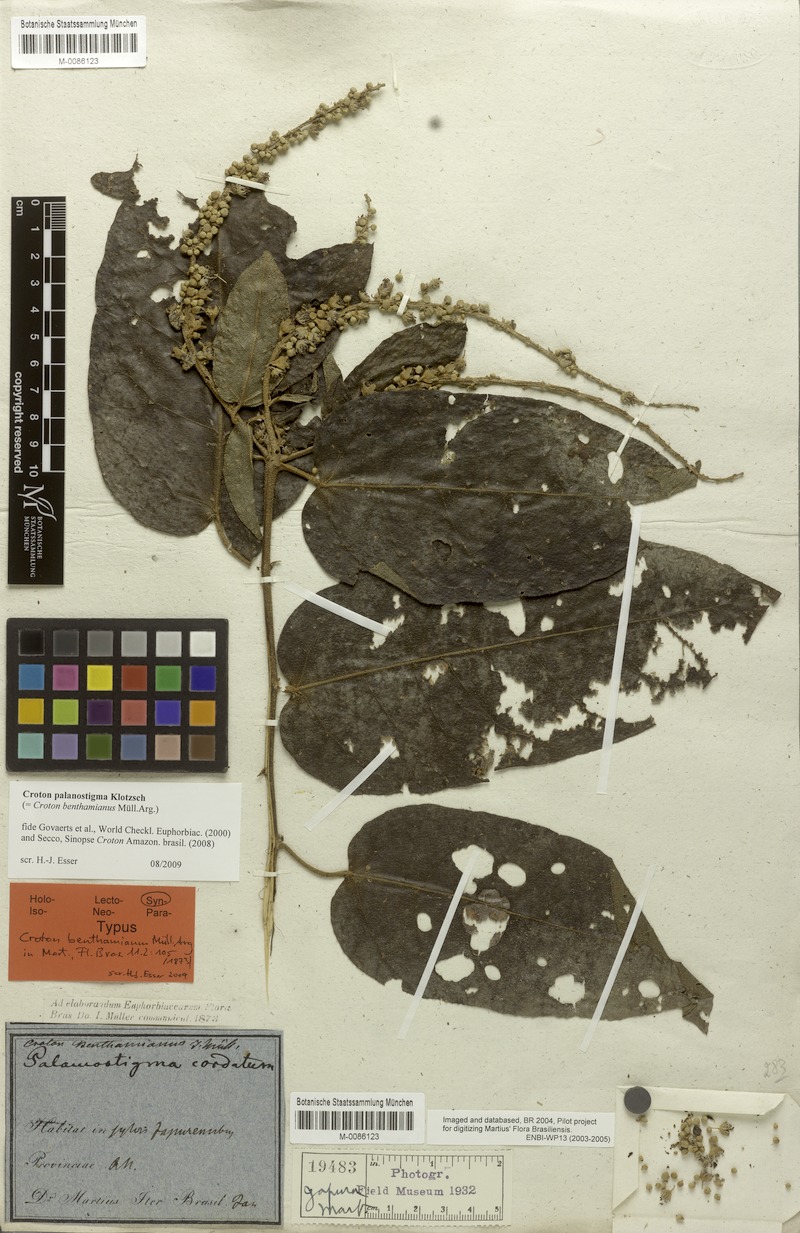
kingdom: Plantae
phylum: Tracheophyta
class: Magnoliopsida
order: Malpighiales
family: Euphorbiaceae
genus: Croton
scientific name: Croton palanostigma
